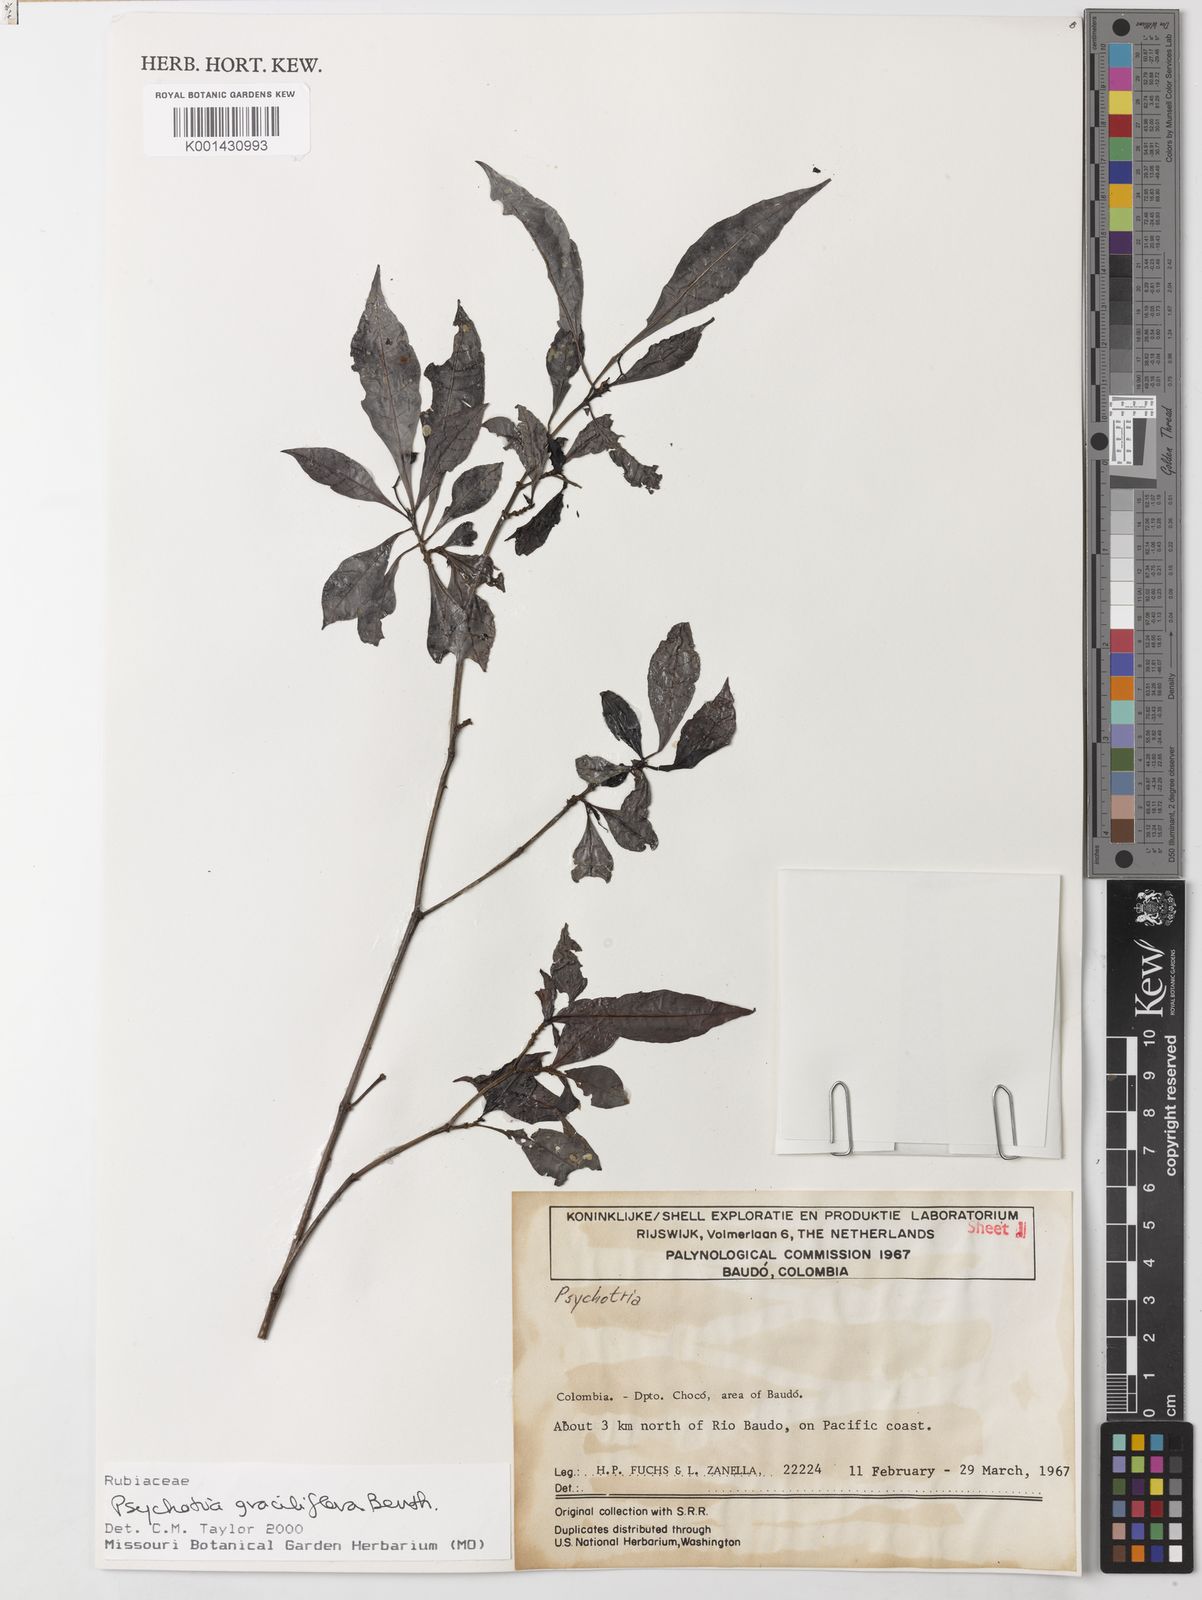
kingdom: Plantae
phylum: Tracheophyta
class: Magnoliopsida
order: Gentianales
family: Rubiaceae
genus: Psychotria
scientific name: Psychotria
